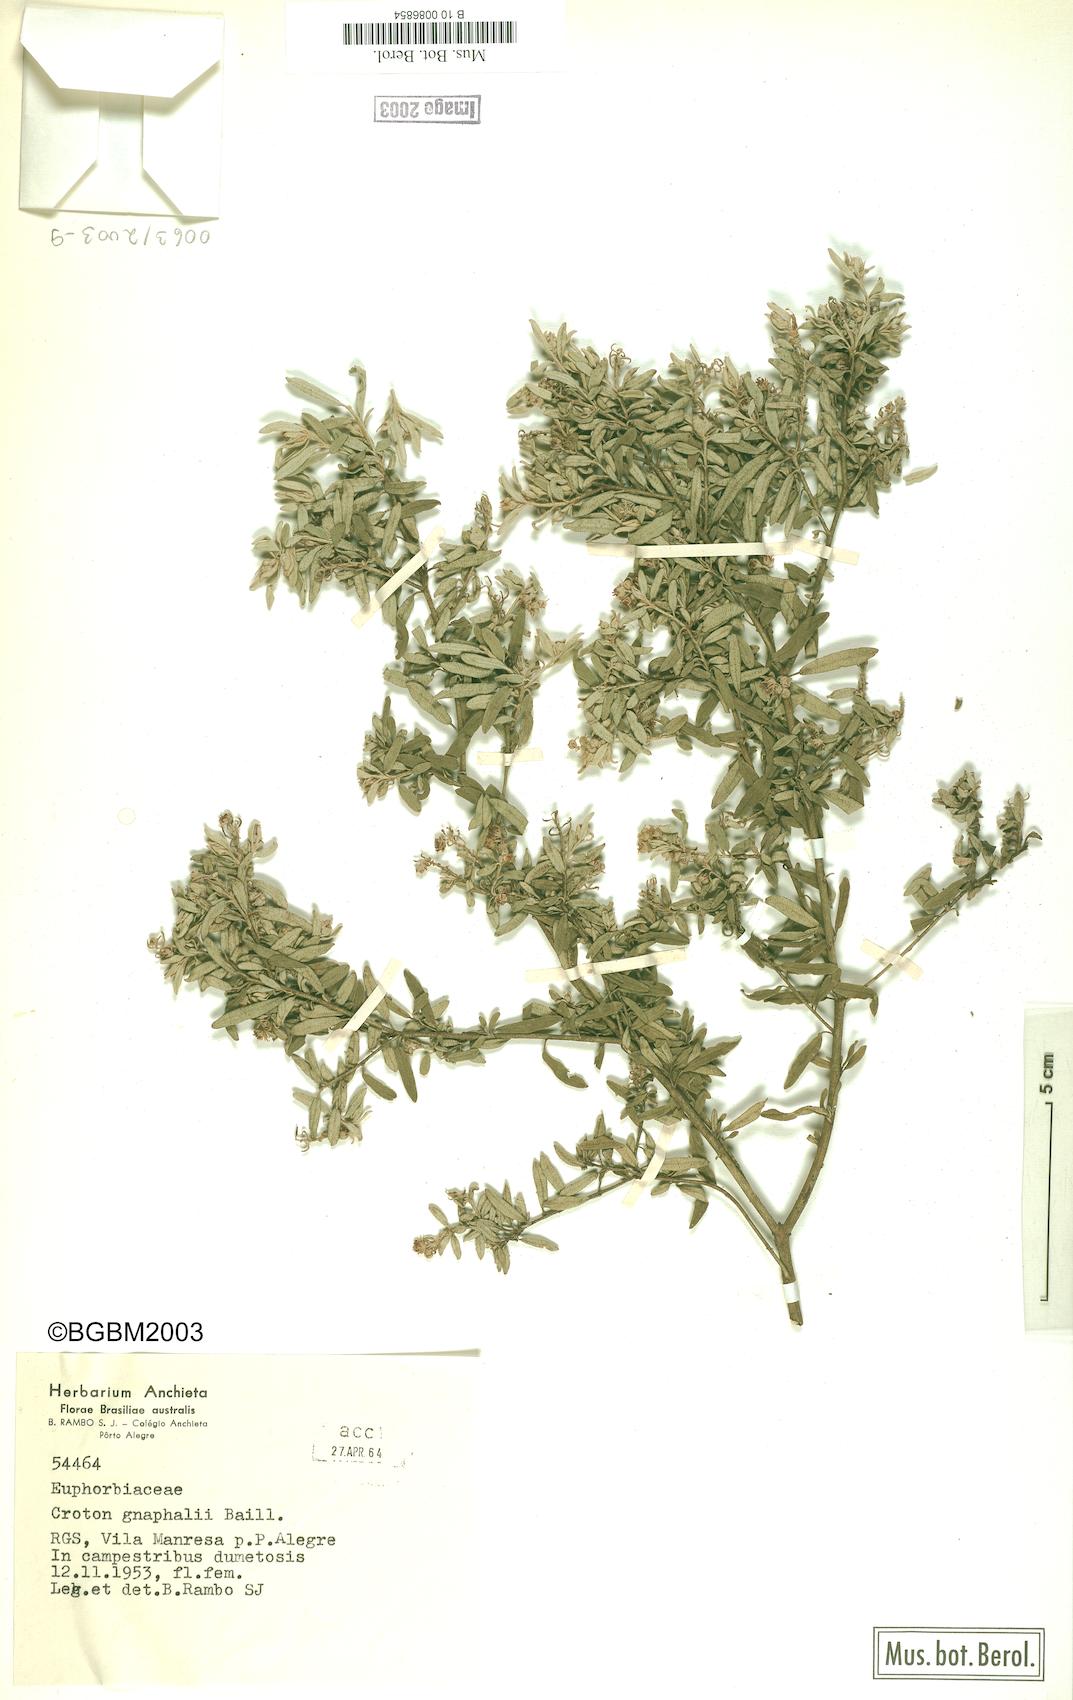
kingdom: Plantae
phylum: Tracheophyta
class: Magnoliopsida
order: Malpighiales
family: Euphorbiaceae
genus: Croton
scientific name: Croton gnaphalii
